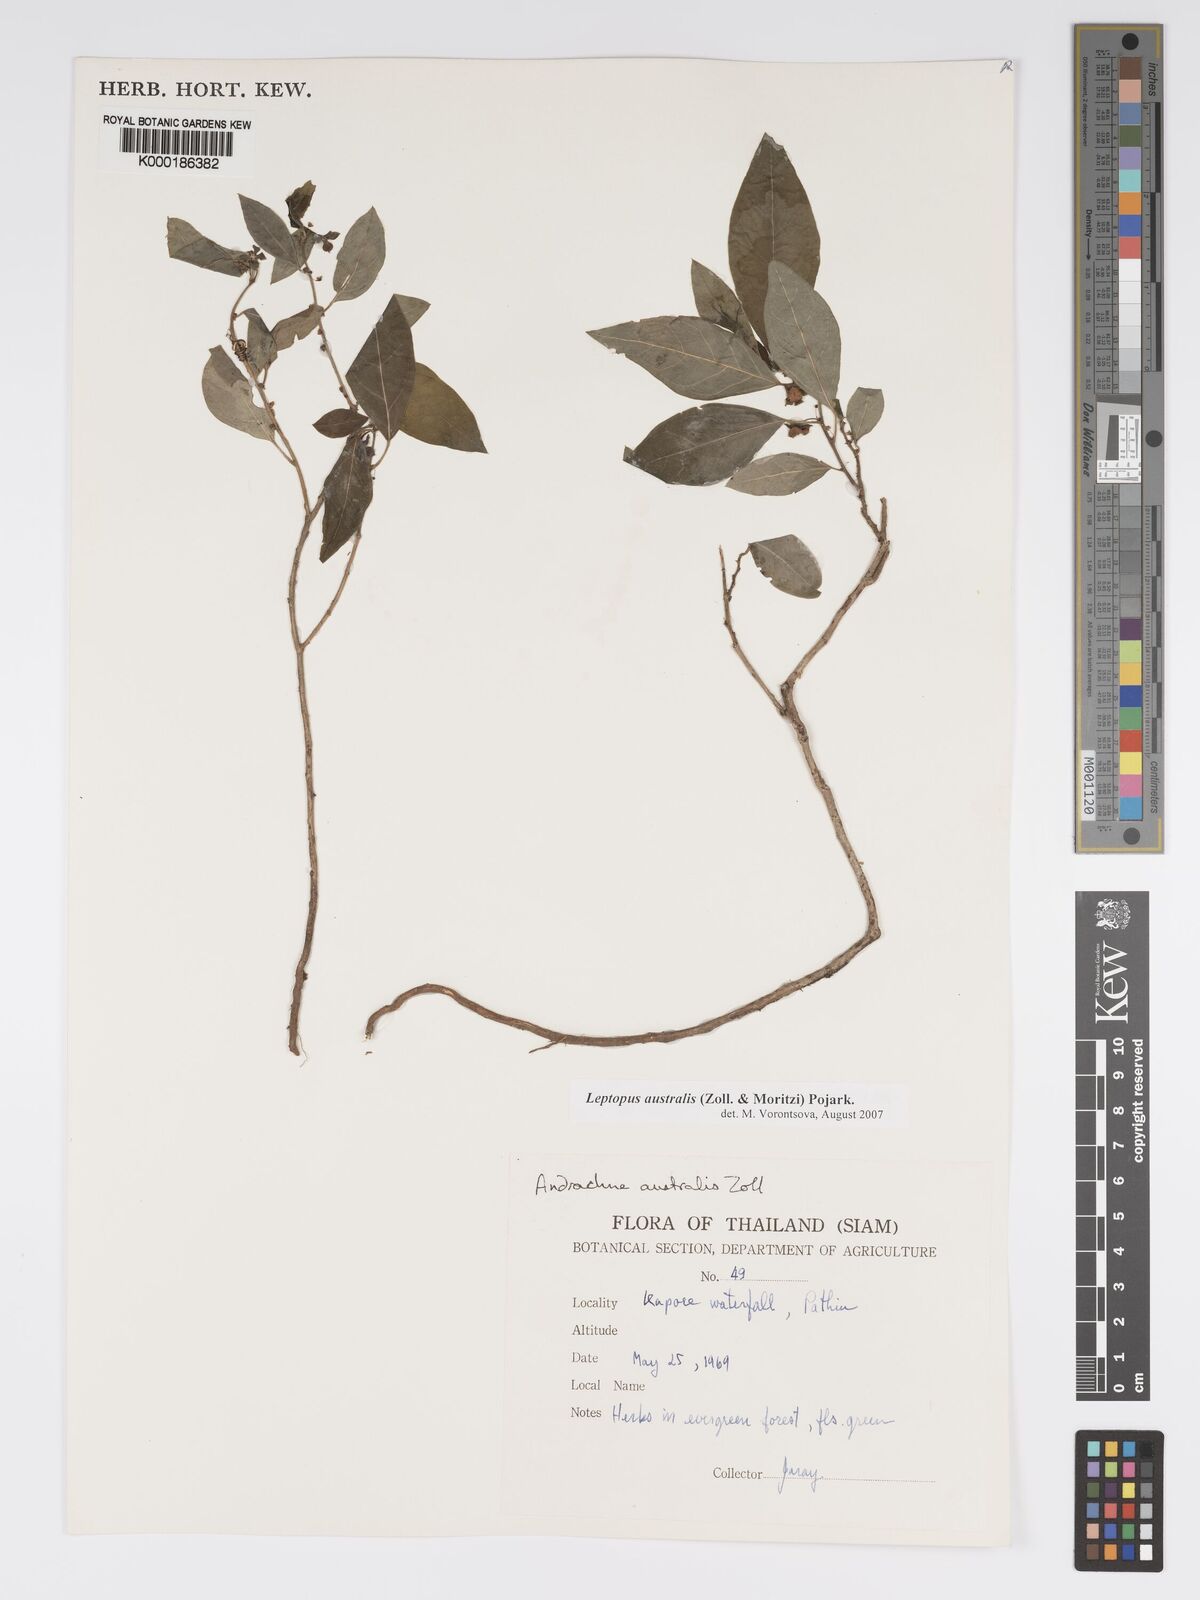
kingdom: Plantae
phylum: Tracheophyta
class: Magnoliopsida
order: Malpighiales
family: Phyllanthaceae
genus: Andrachne
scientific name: Andrachne
